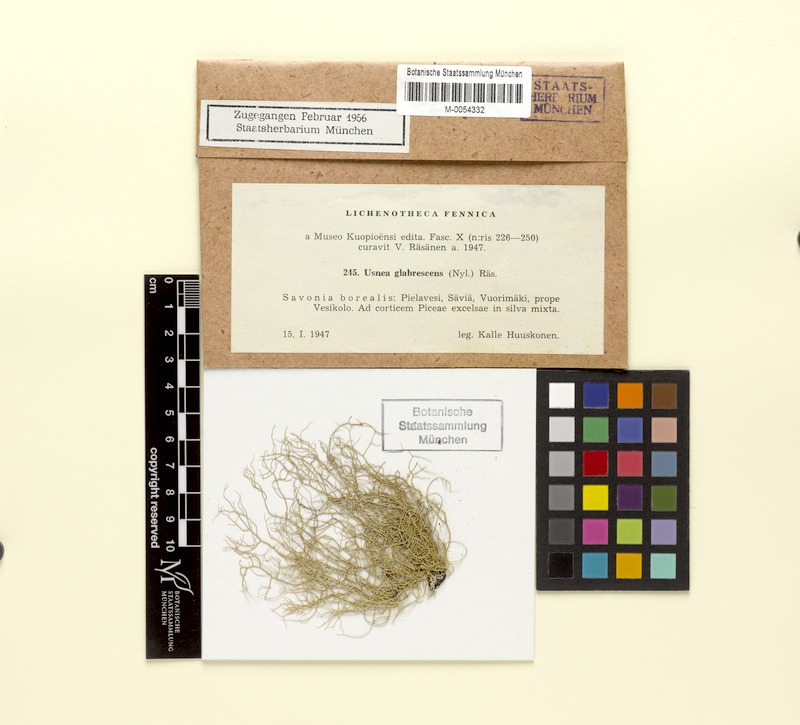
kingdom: Fungi
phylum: Ascomycota
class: Lecanoromycetes
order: Lecanorales
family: Parmeliaceae
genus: Usnea
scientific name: Usnea glabrescens
